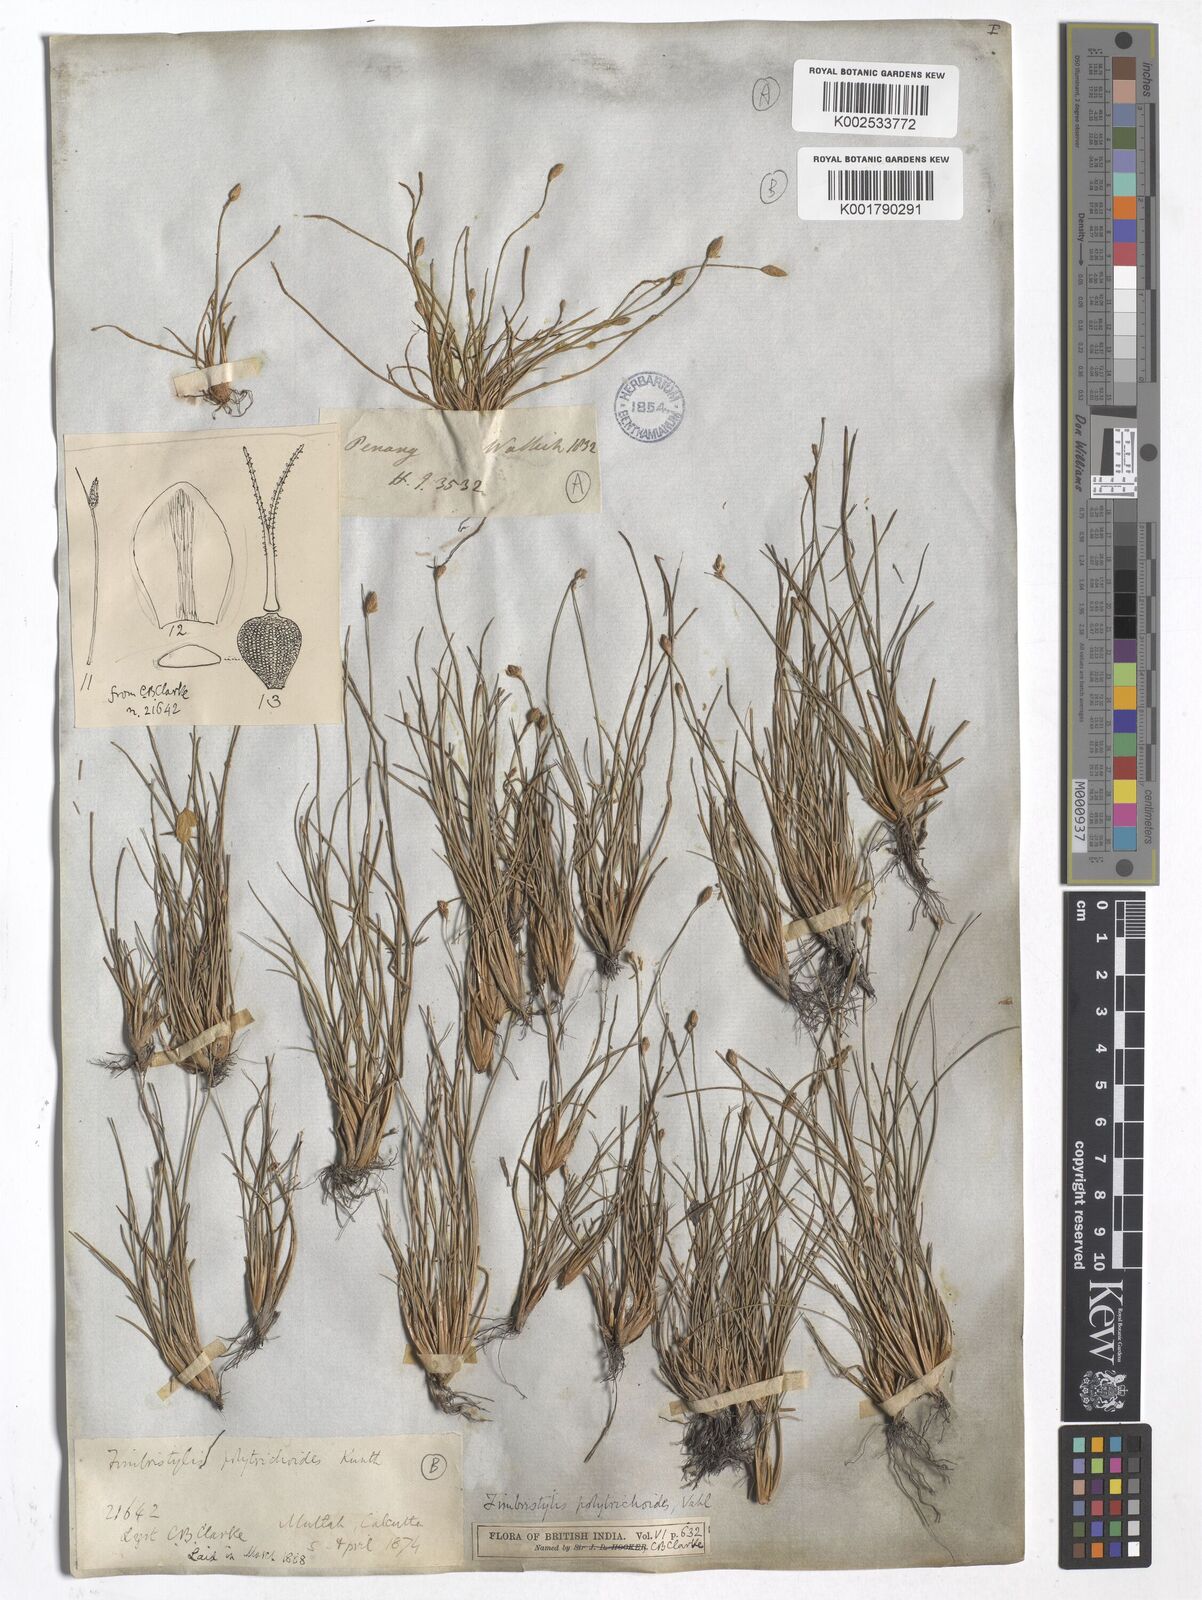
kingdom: Plantae
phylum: Tracheophyta
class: Liliopsida
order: Poales
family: Cyperaceae
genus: Fimbristylis
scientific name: Fimbristylis polytrichoides
